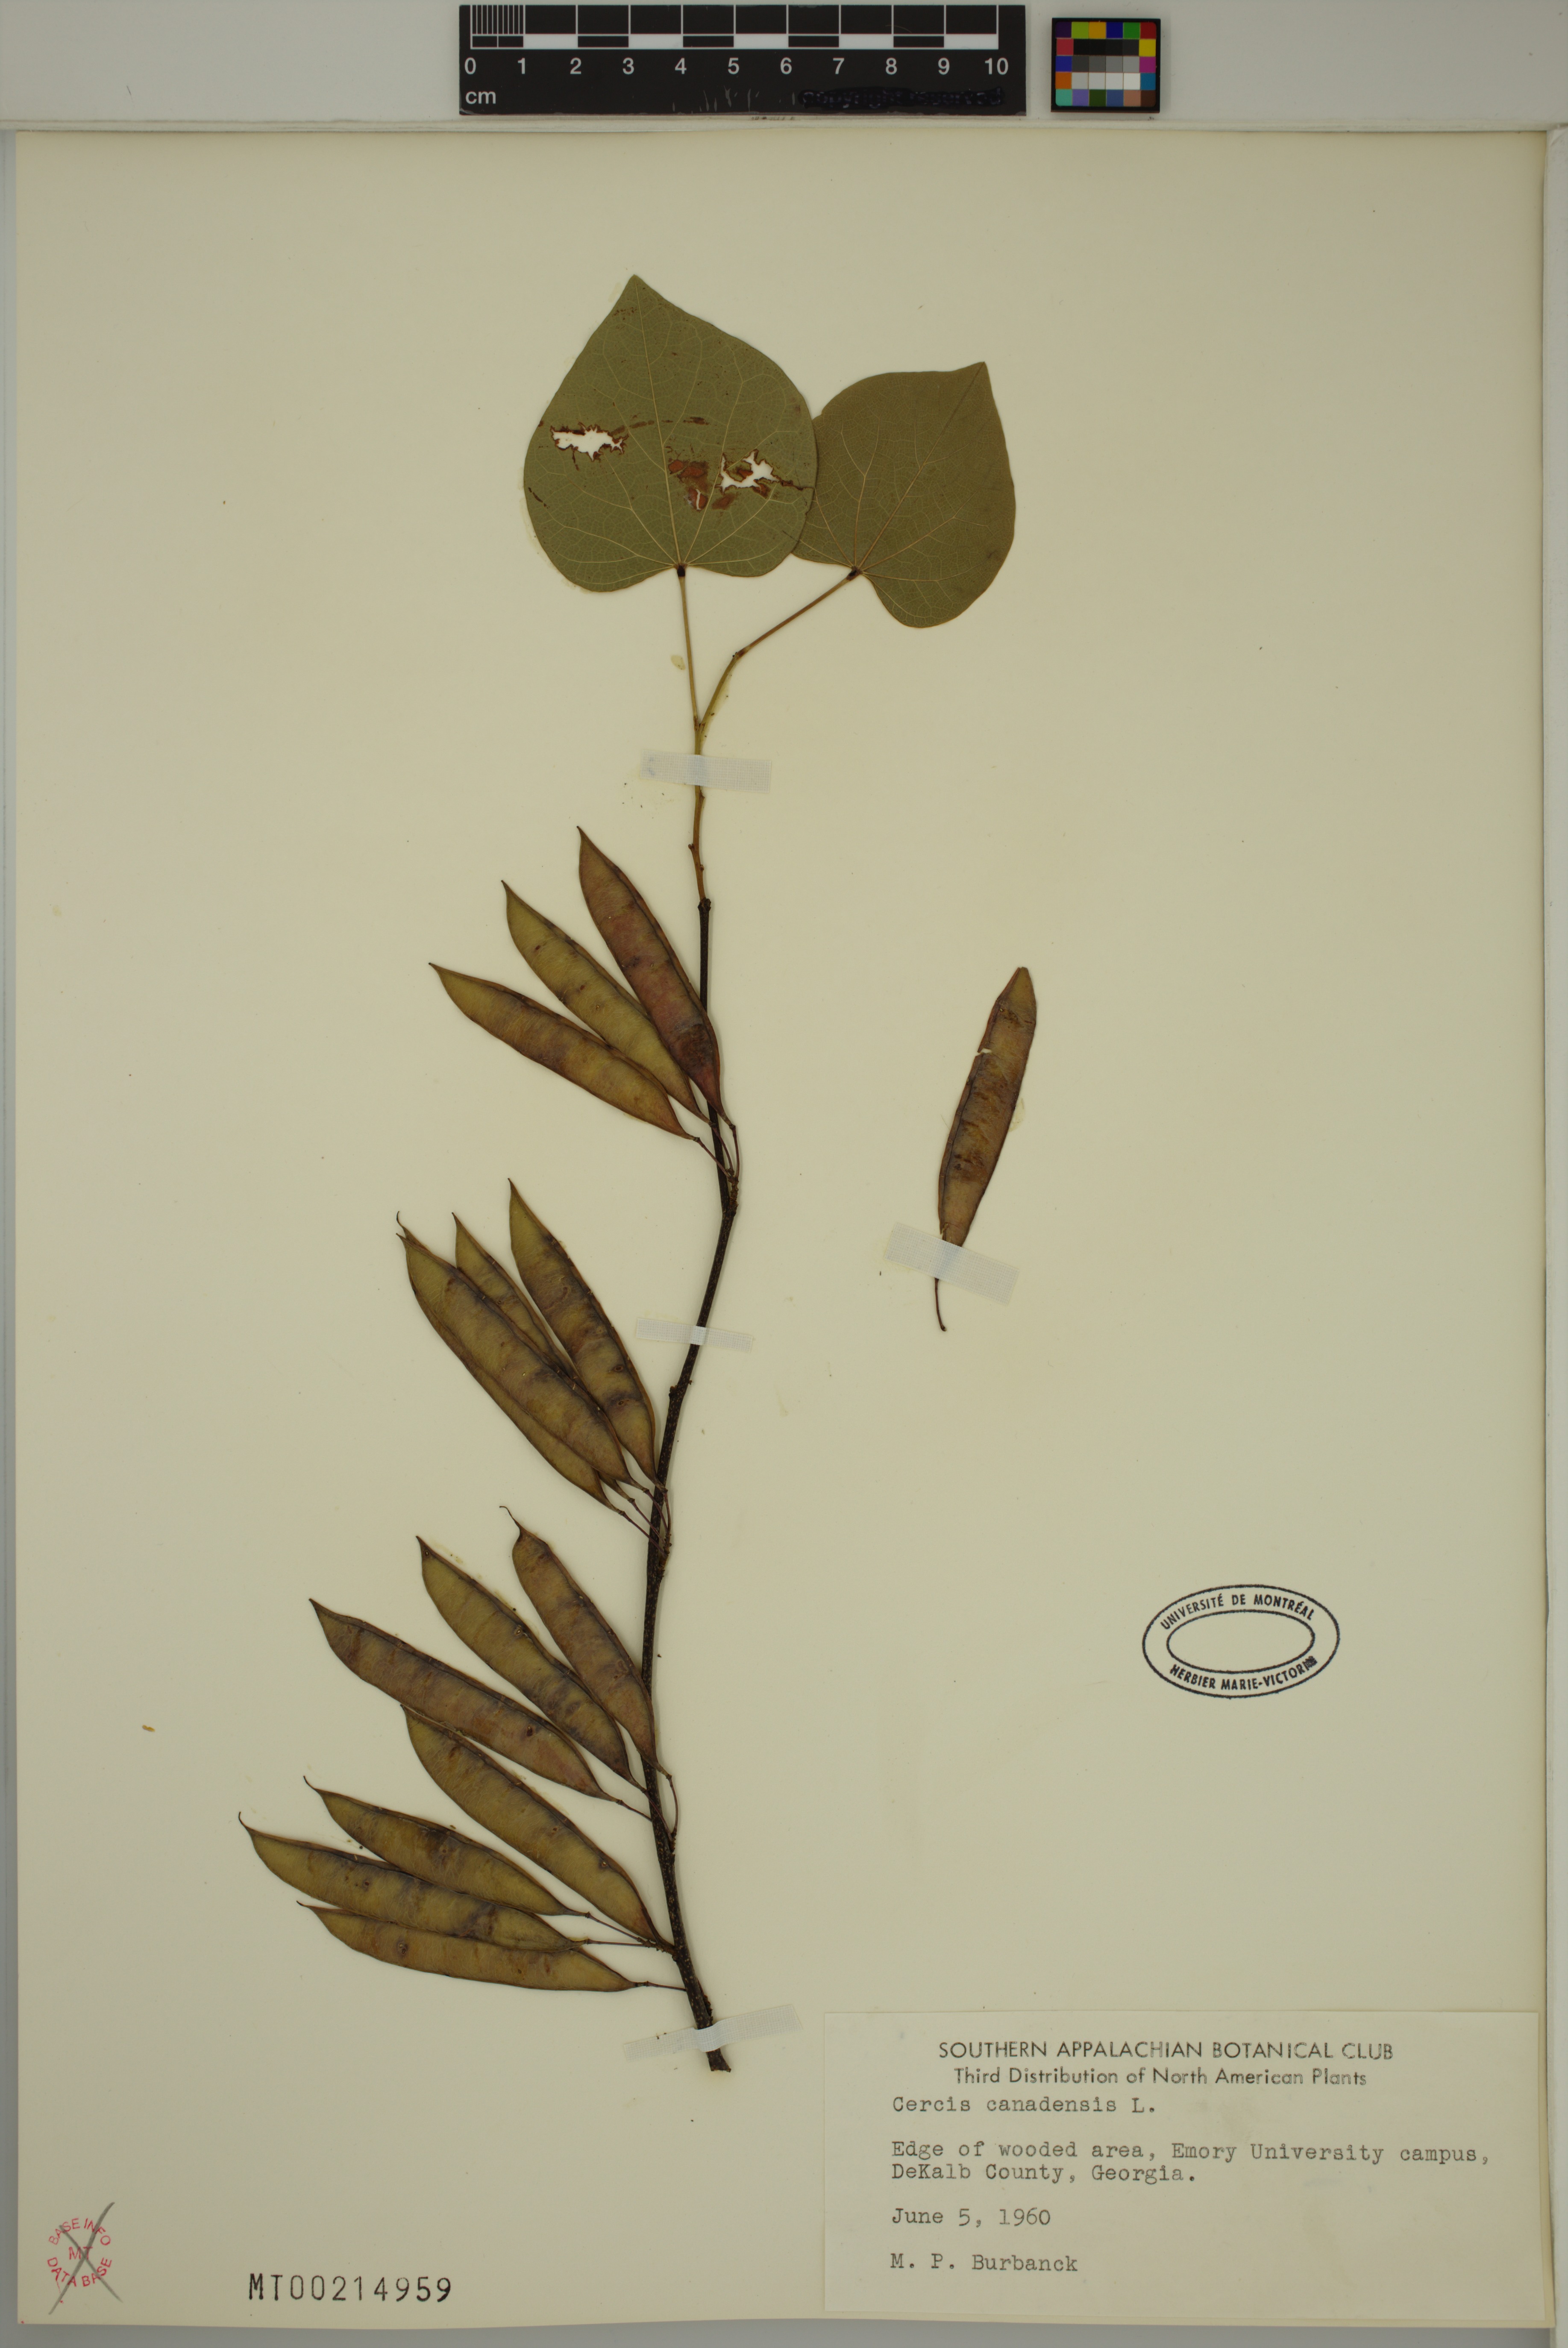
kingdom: Plantae
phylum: Tracheophyta
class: Magnoliopsida
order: Fabales
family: Fabaceae
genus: Cercis
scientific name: Cercis canadensis
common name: Eastern redbud
